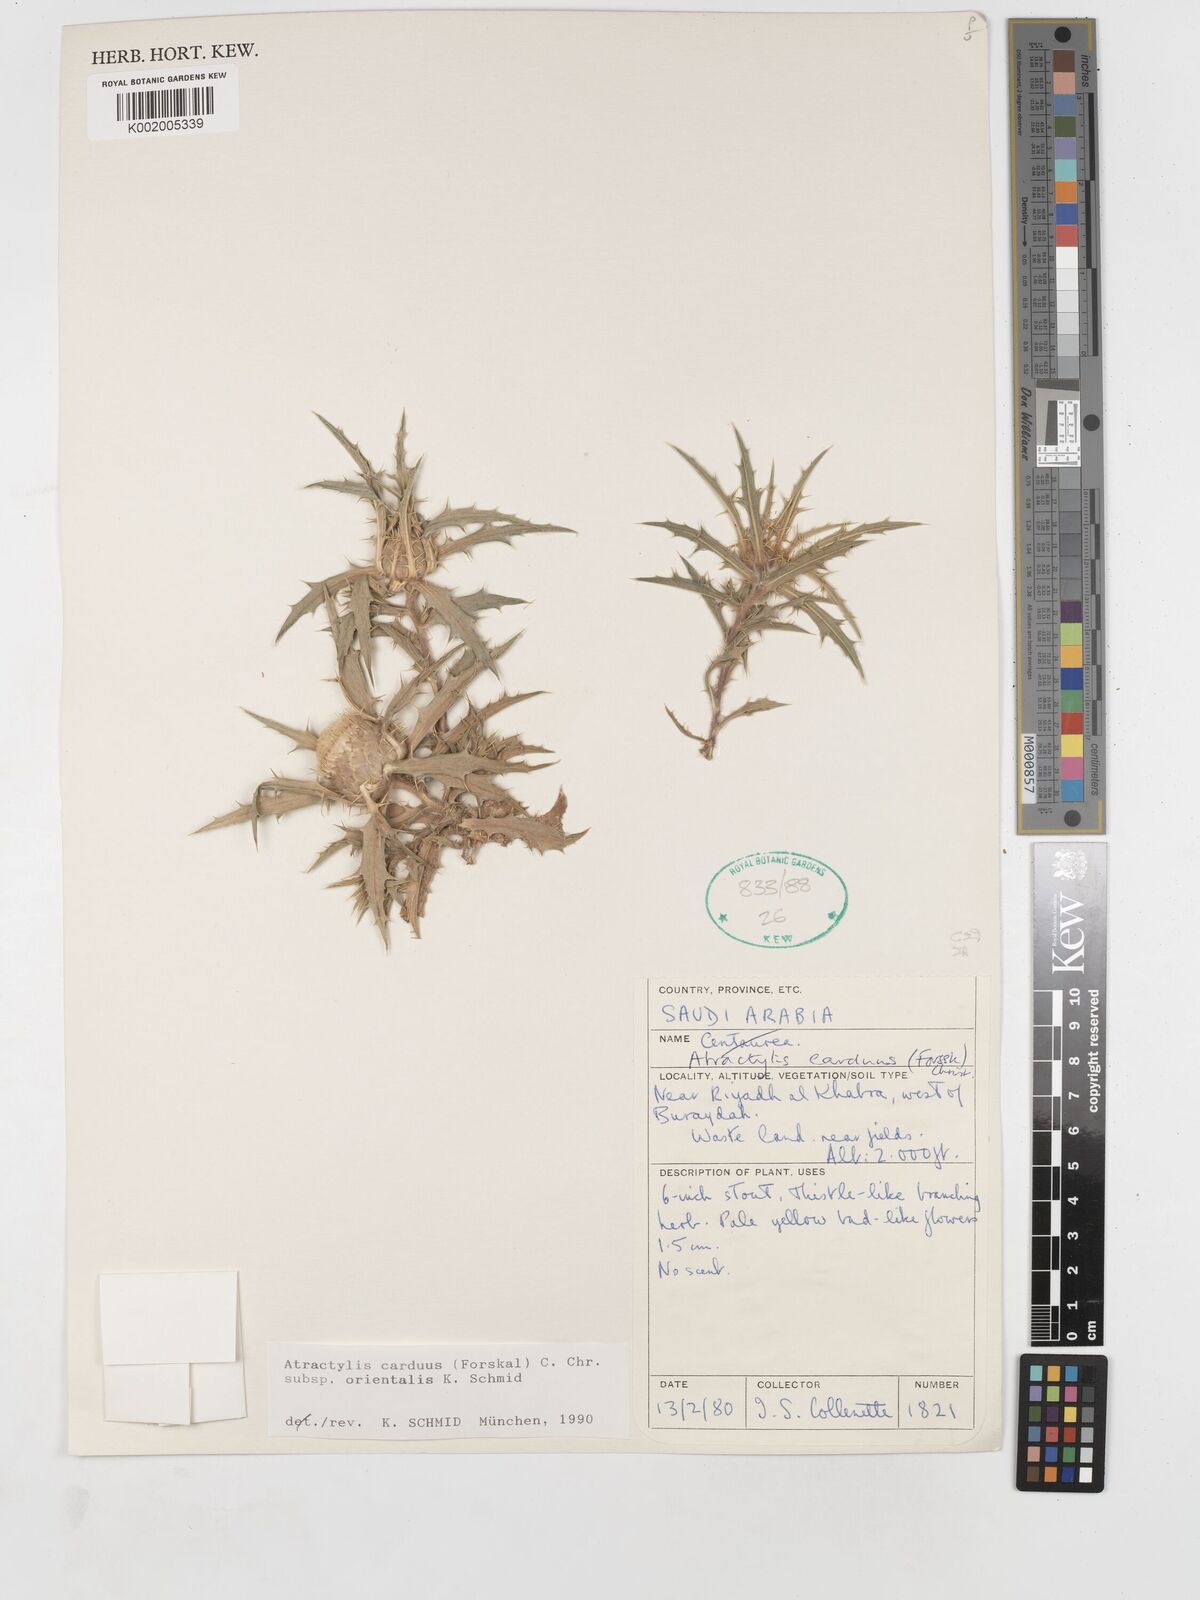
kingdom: Plantae
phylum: Tracheophyta
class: Magnoliopsida
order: Asterales
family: Asteraceae
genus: Atractylis
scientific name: Atractylis carduus
